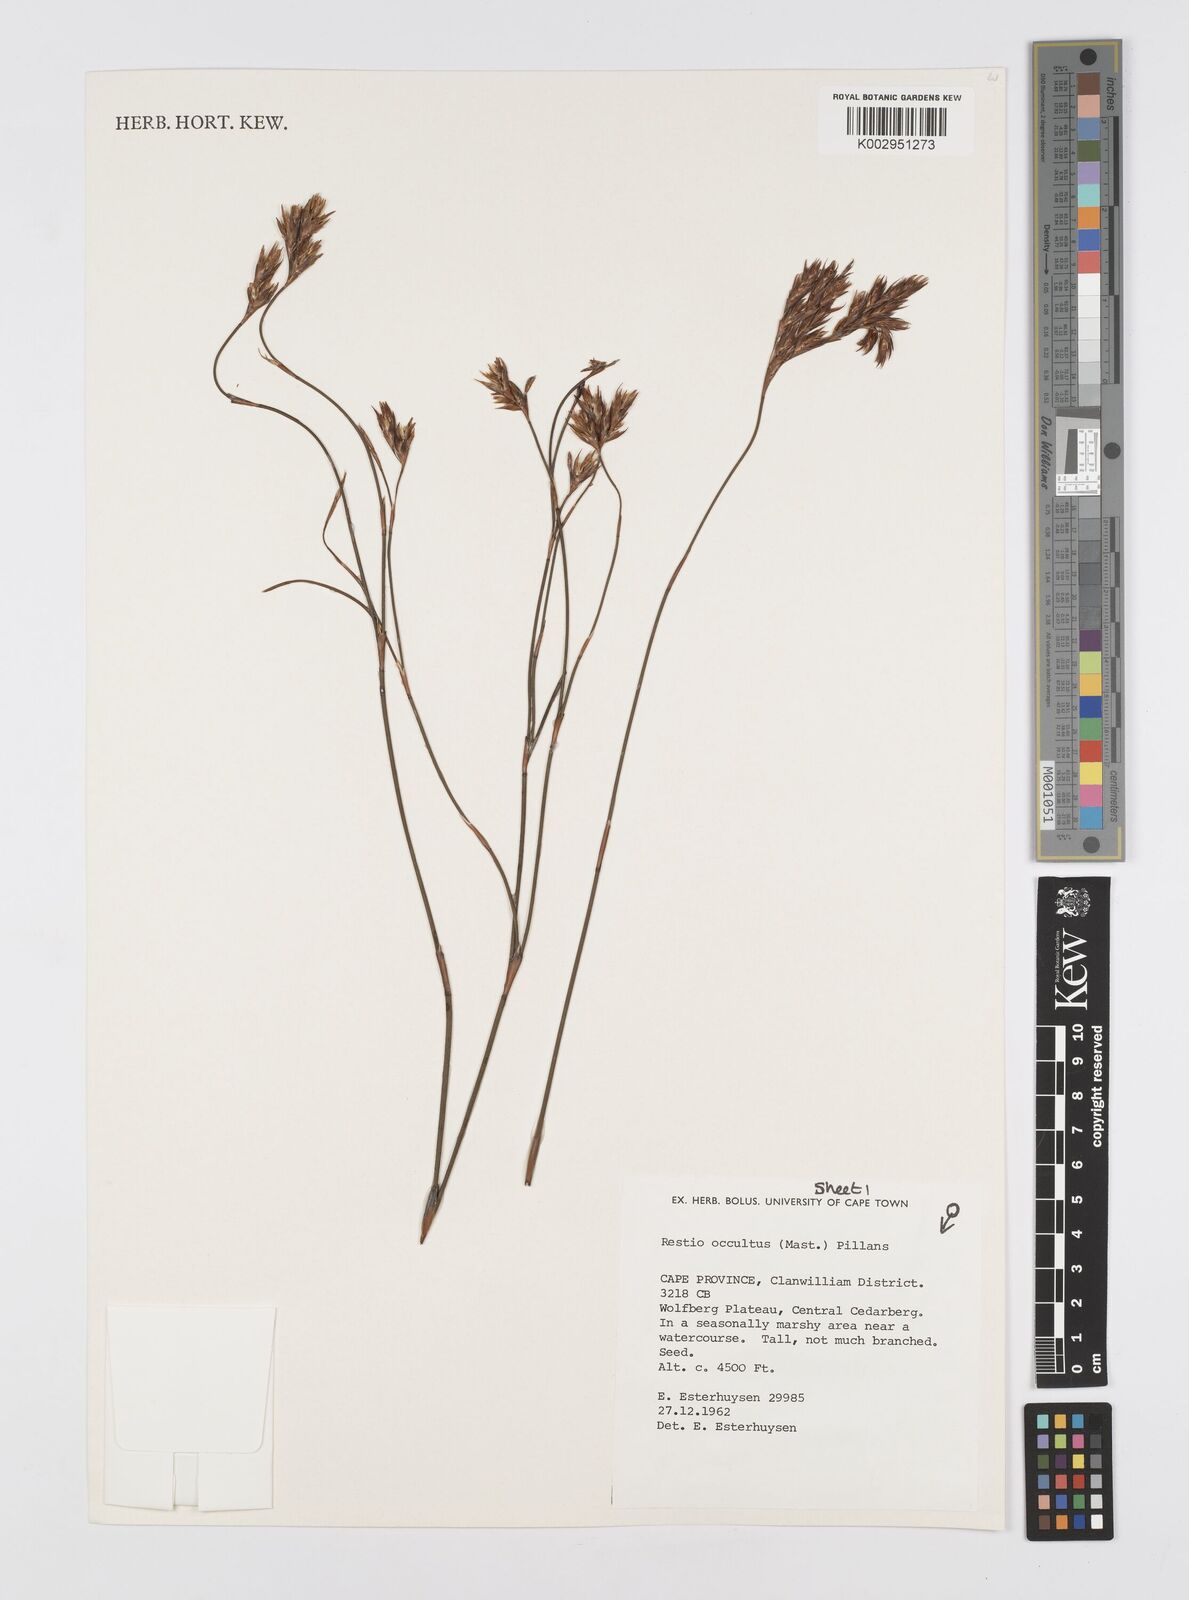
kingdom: Plantae
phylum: Tracheophyta
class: Liliopsida
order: Poales
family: Restionaceae
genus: Restio
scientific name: Restio occultus
